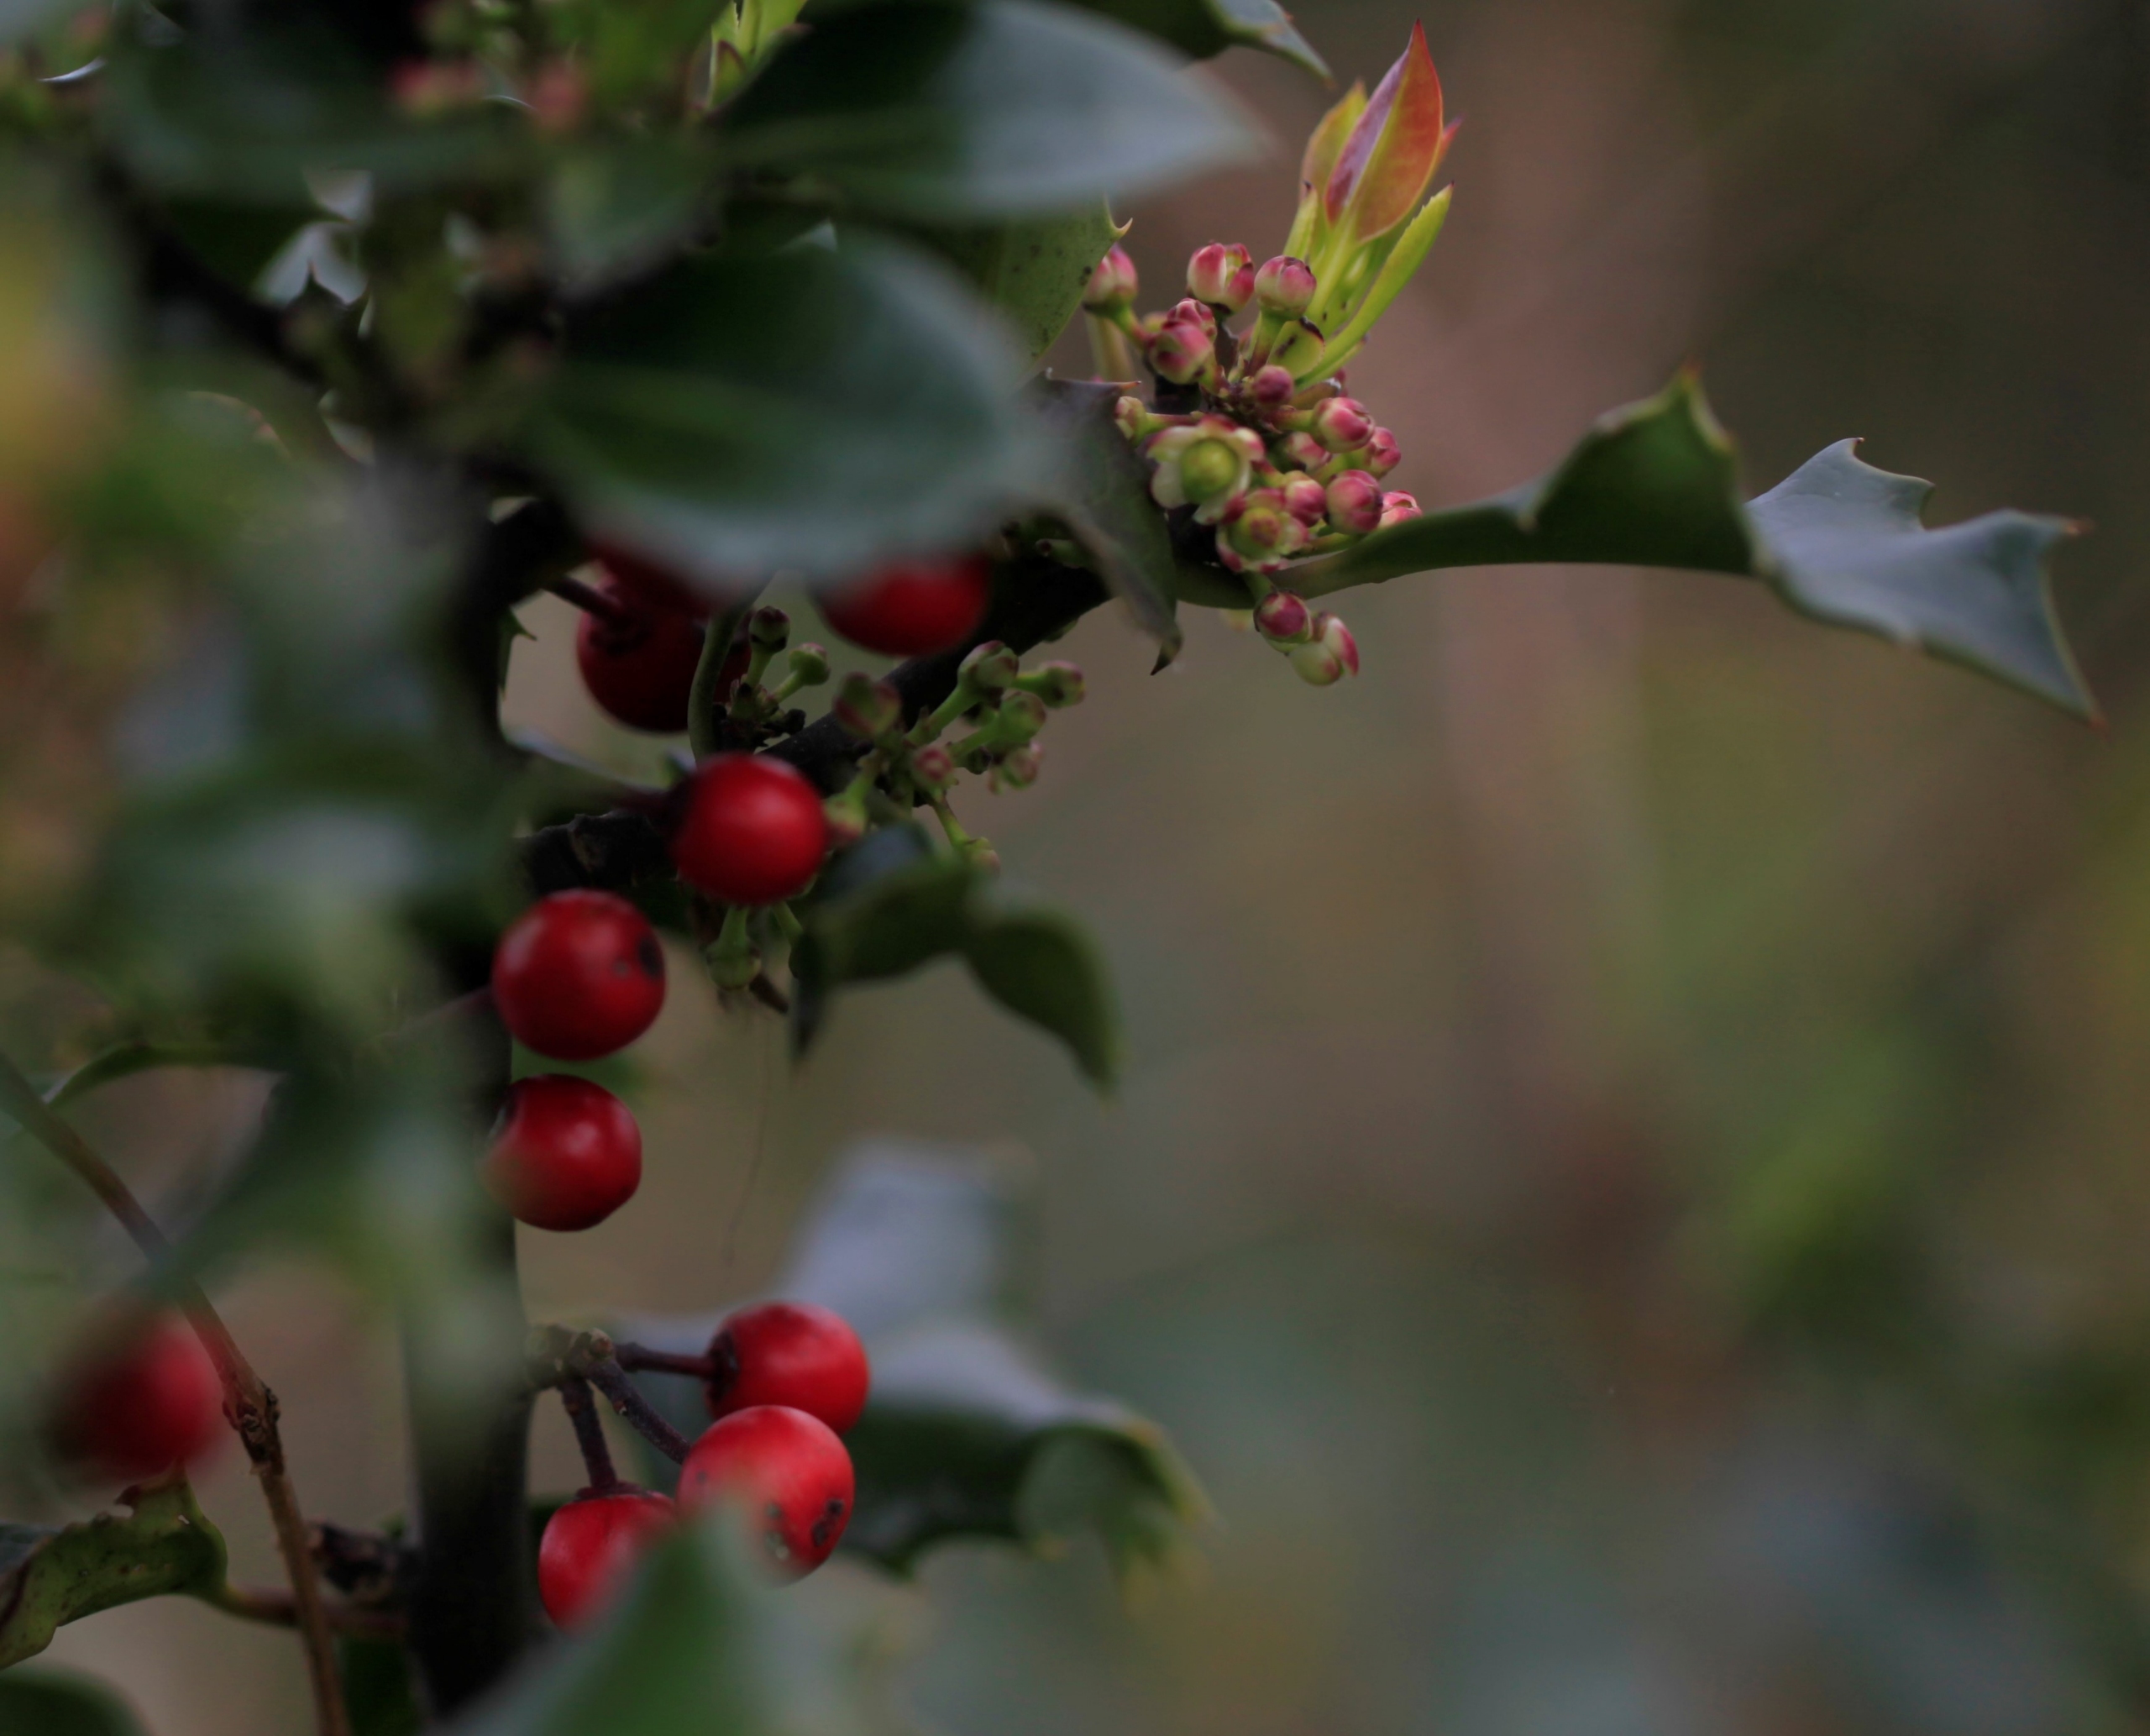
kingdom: Plantae
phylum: Tracheophyta
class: Magnoliopsida
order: Aquifoliales
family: Aquifoliaceae
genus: Ilex
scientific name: Ilex aquifolium
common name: Kristtorn
